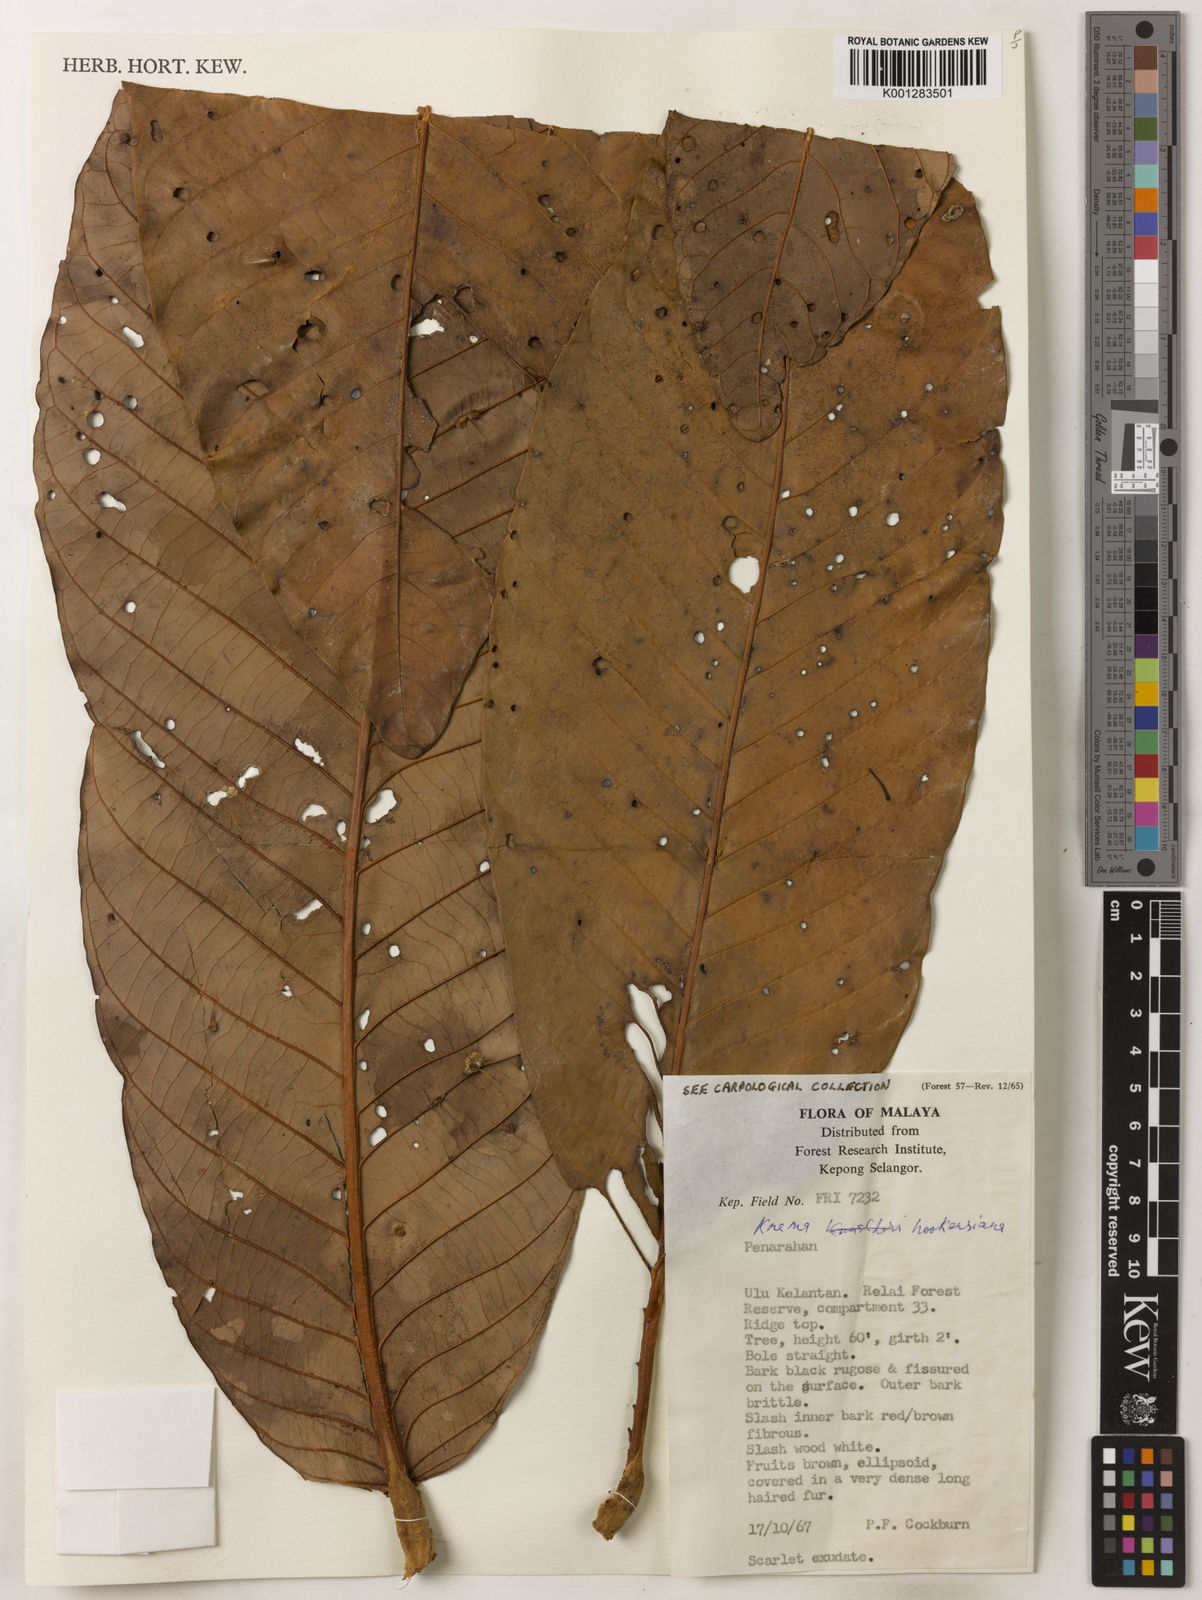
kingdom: Plantae
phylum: Tracheophyta
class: Magnoliopsida
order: Magnoliales
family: Myristicaceae
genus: Knema
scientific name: Knema hookeriana
